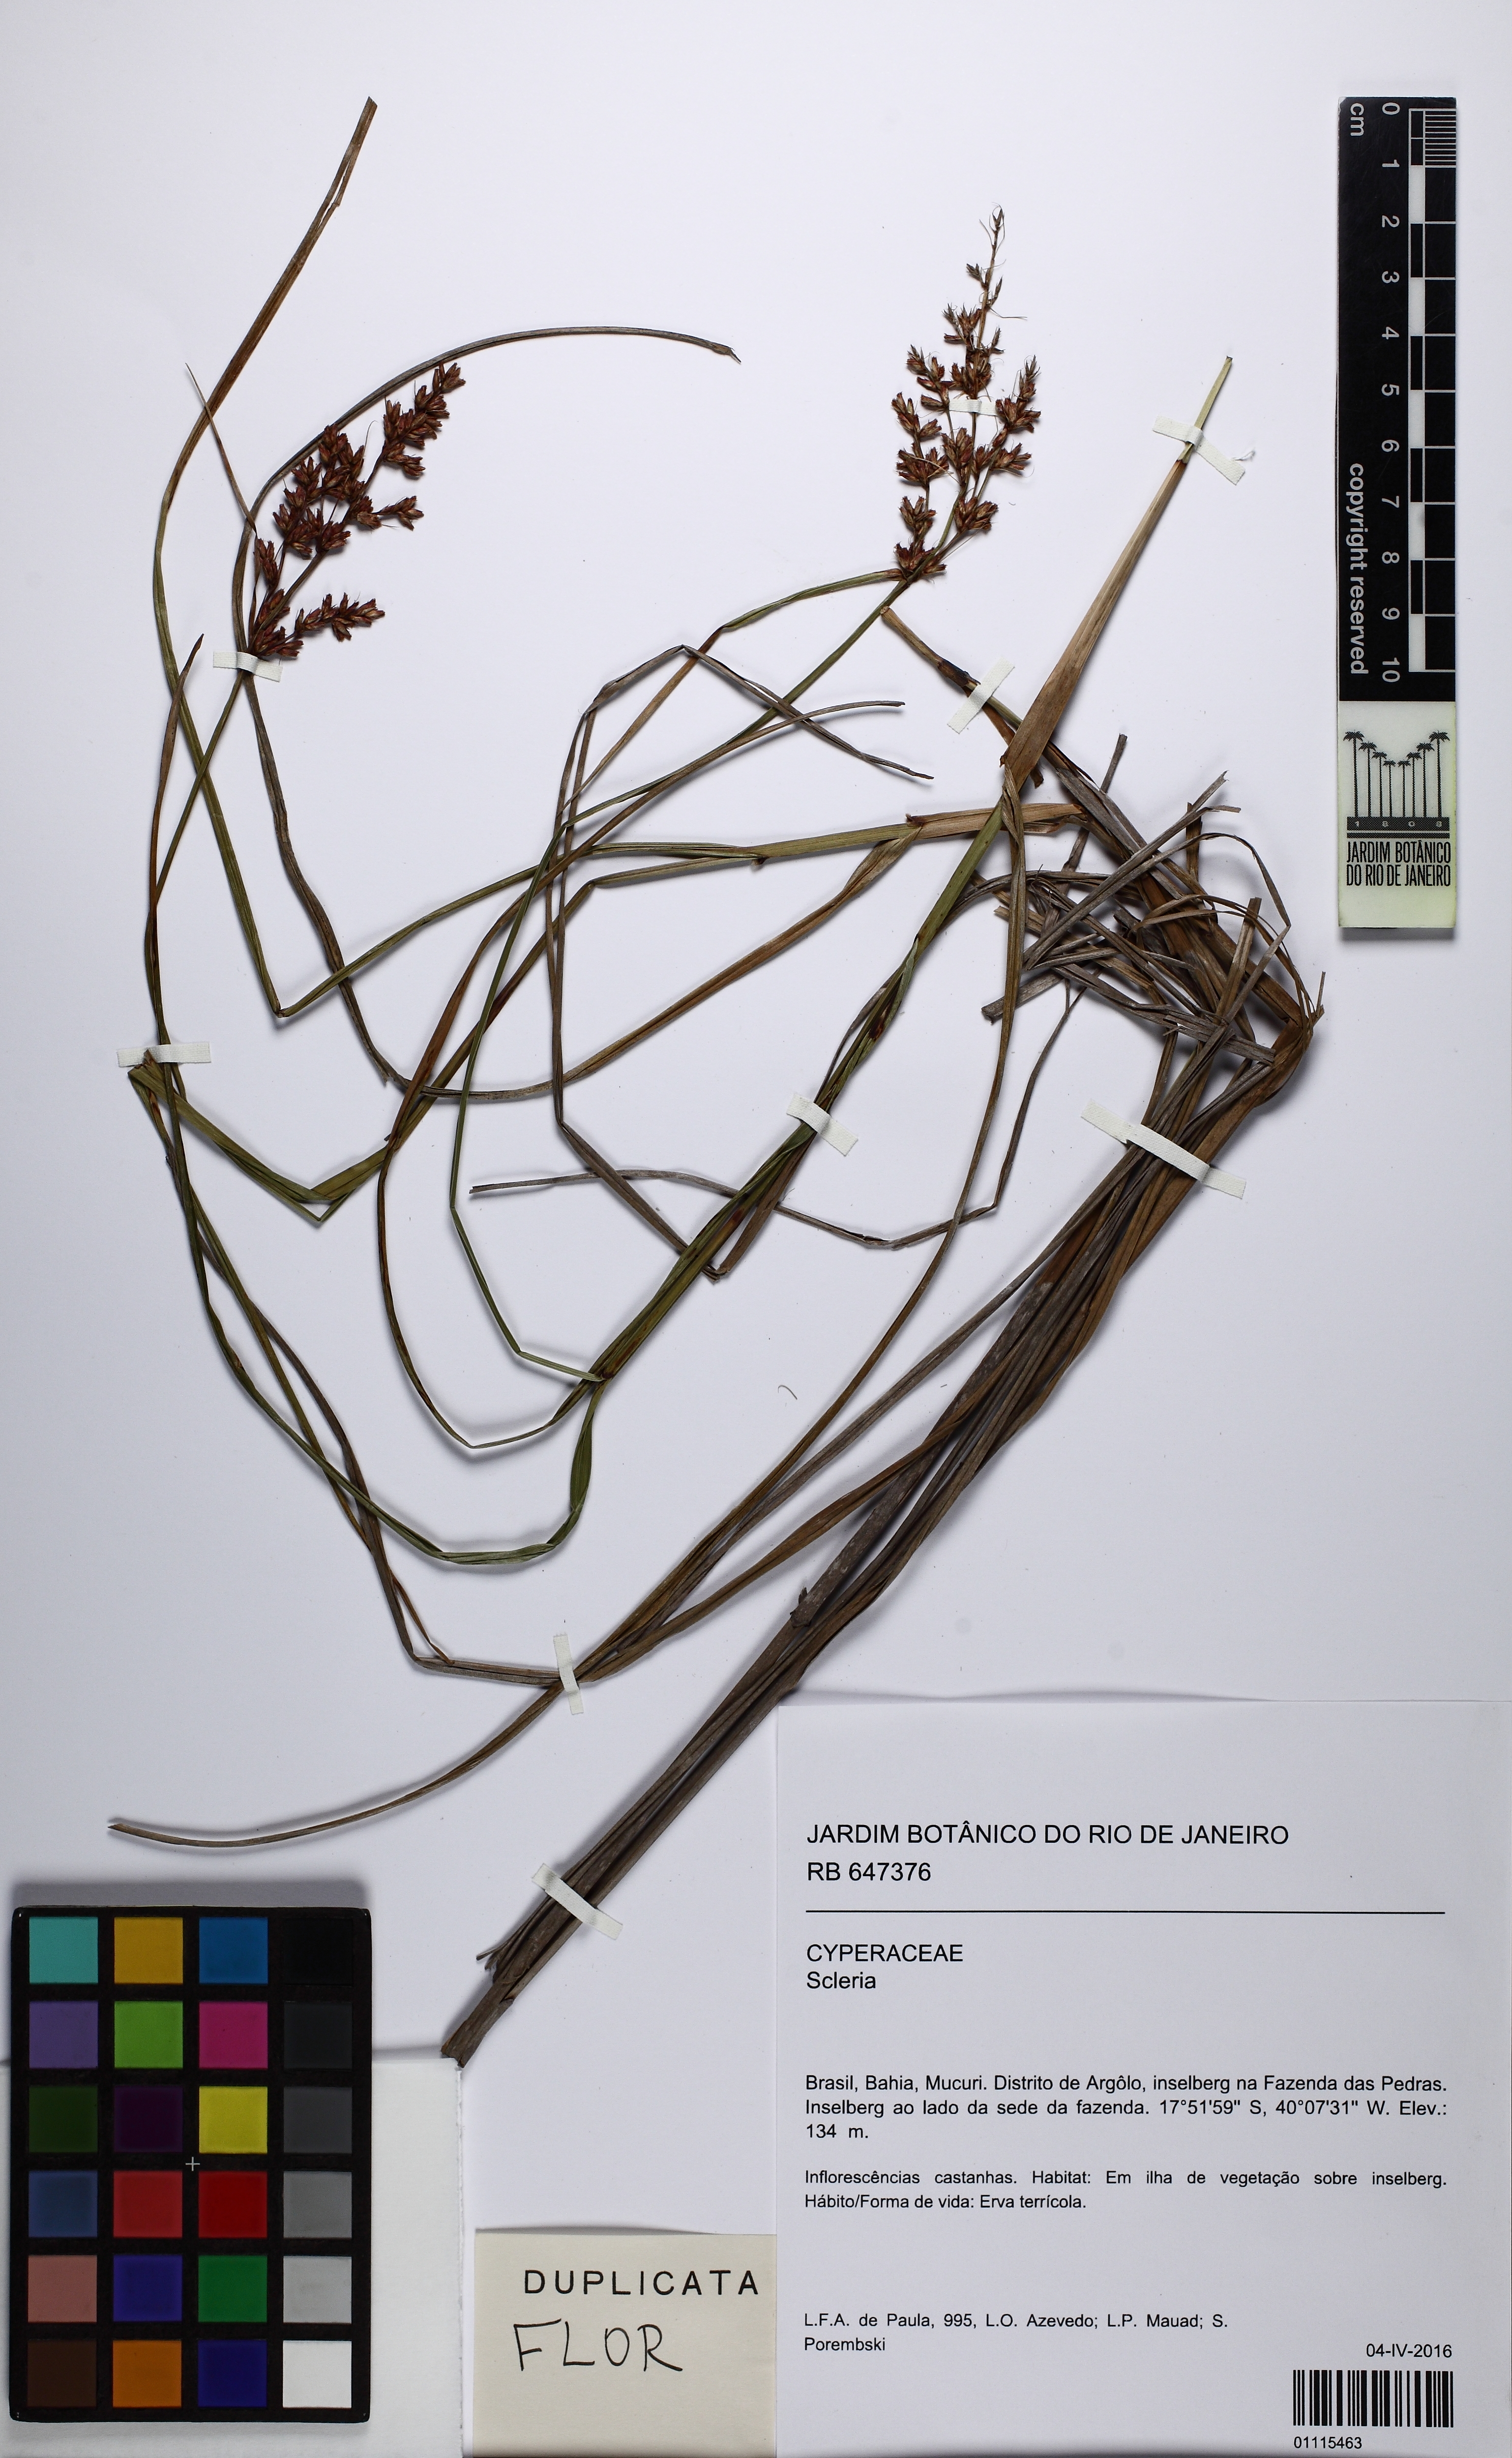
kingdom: Plantae
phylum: Tracheophyta
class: Liliopsida
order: Poales
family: Cyperaceae
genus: Scleria
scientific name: Scleria composita
